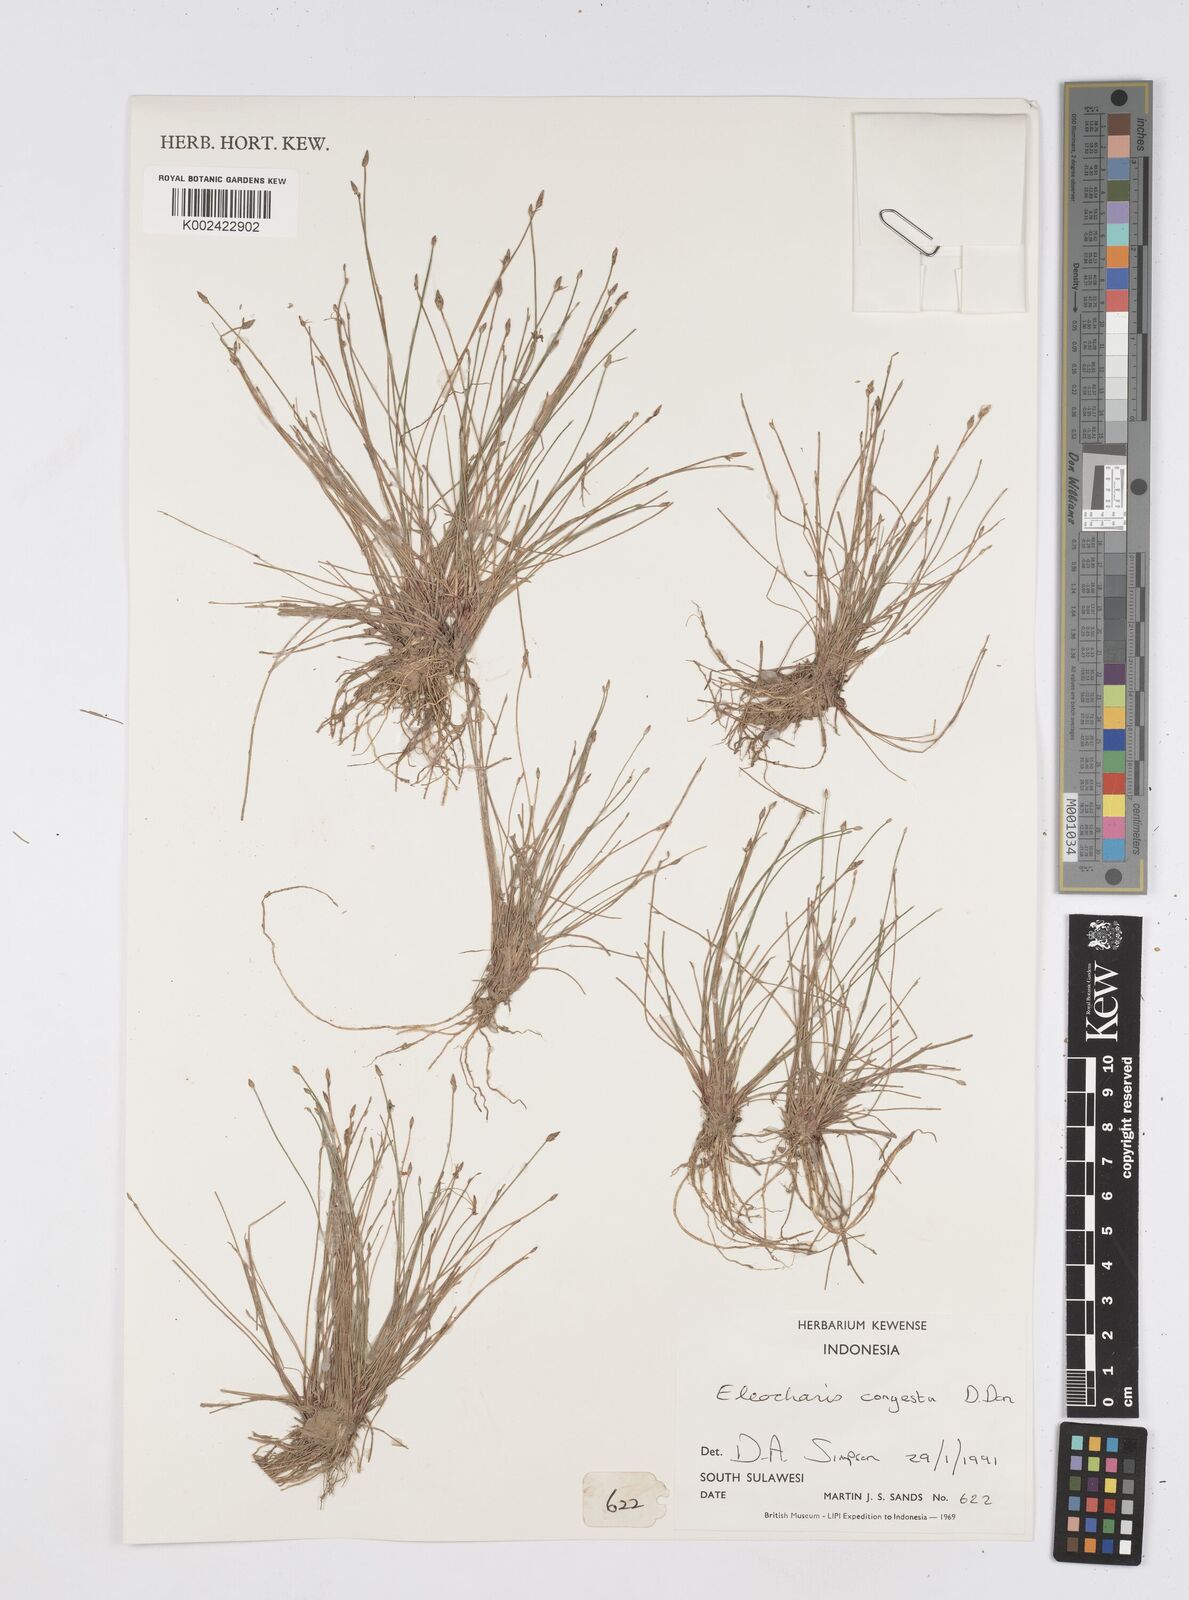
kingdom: Plantae
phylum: Tracheophyta
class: Liliopsida
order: Poales
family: Cyperaceae
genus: Eleocharis
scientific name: Eleocharis congesta
